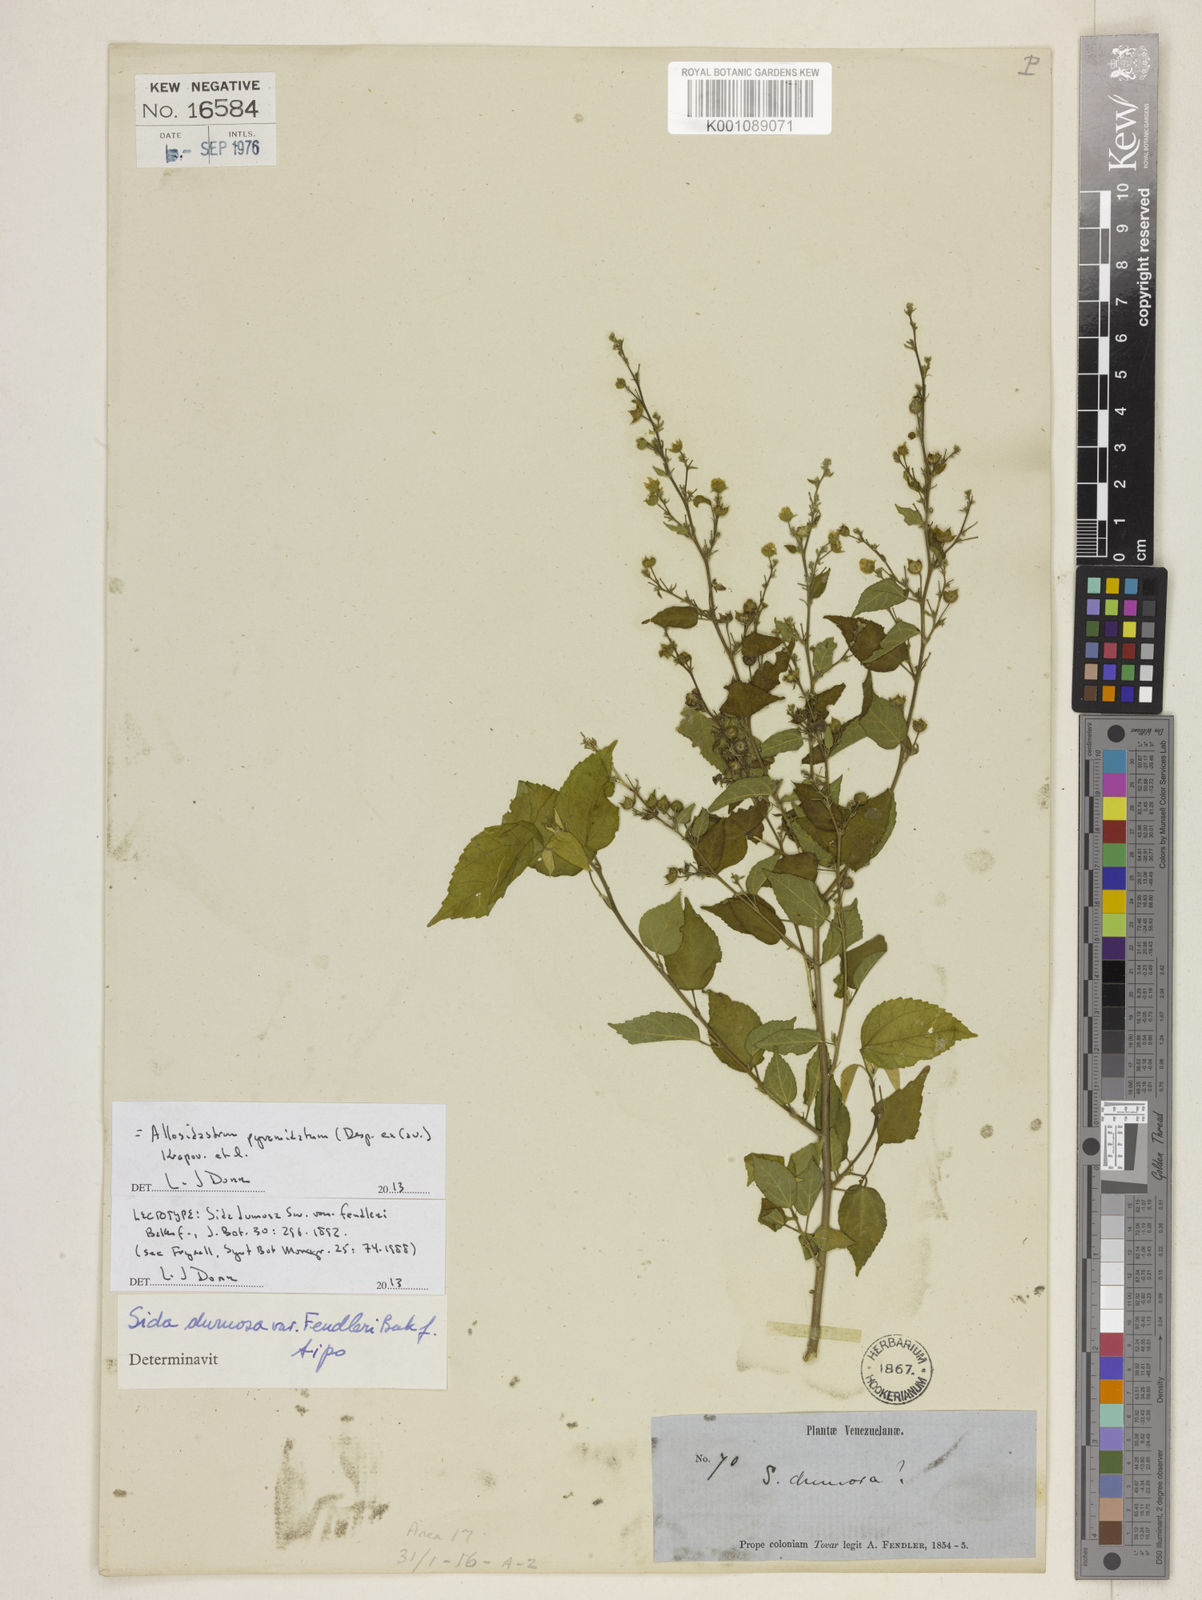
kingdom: Plantae
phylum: Tracheophyta
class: Magnoliopsida
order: Malvales
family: Malvaceae
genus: Allosidastrum
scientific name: Allosidastrum pyramidatum
